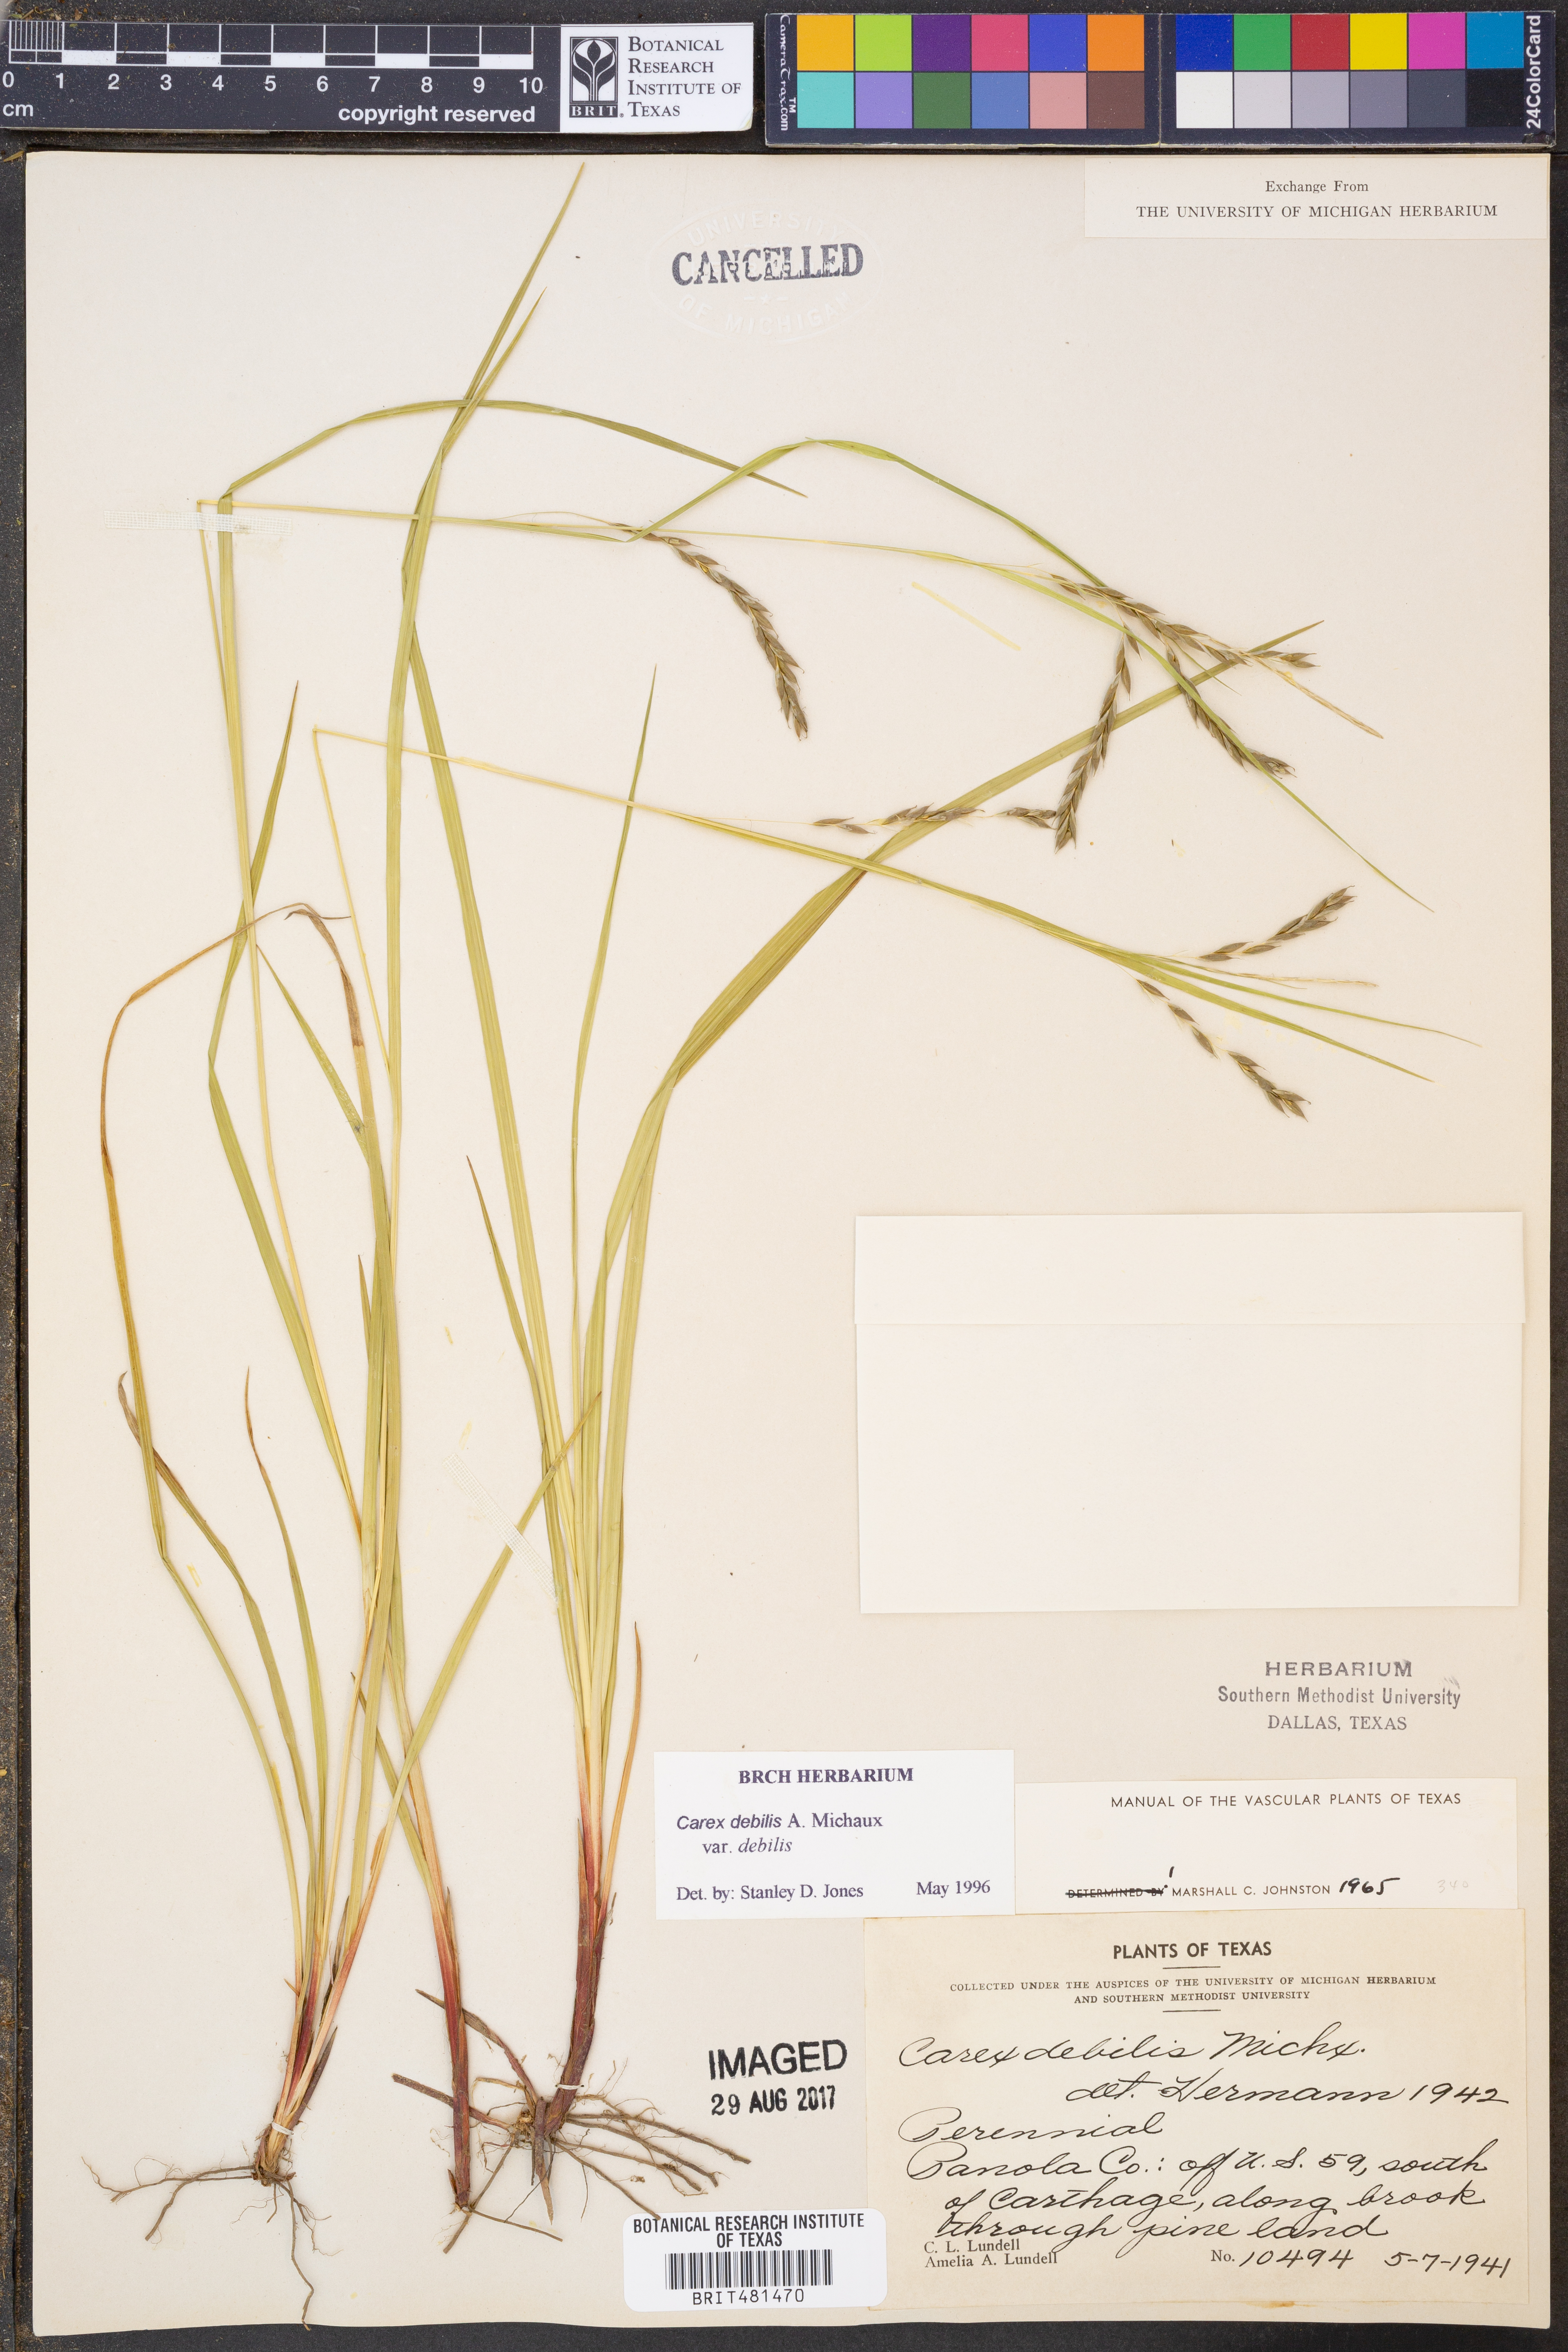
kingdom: Plantae
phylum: Tracheophyta
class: Liliopsida
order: Poales
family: Cyperaceae
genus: Carex
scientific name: Carex debilis
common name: White-edge sedge
